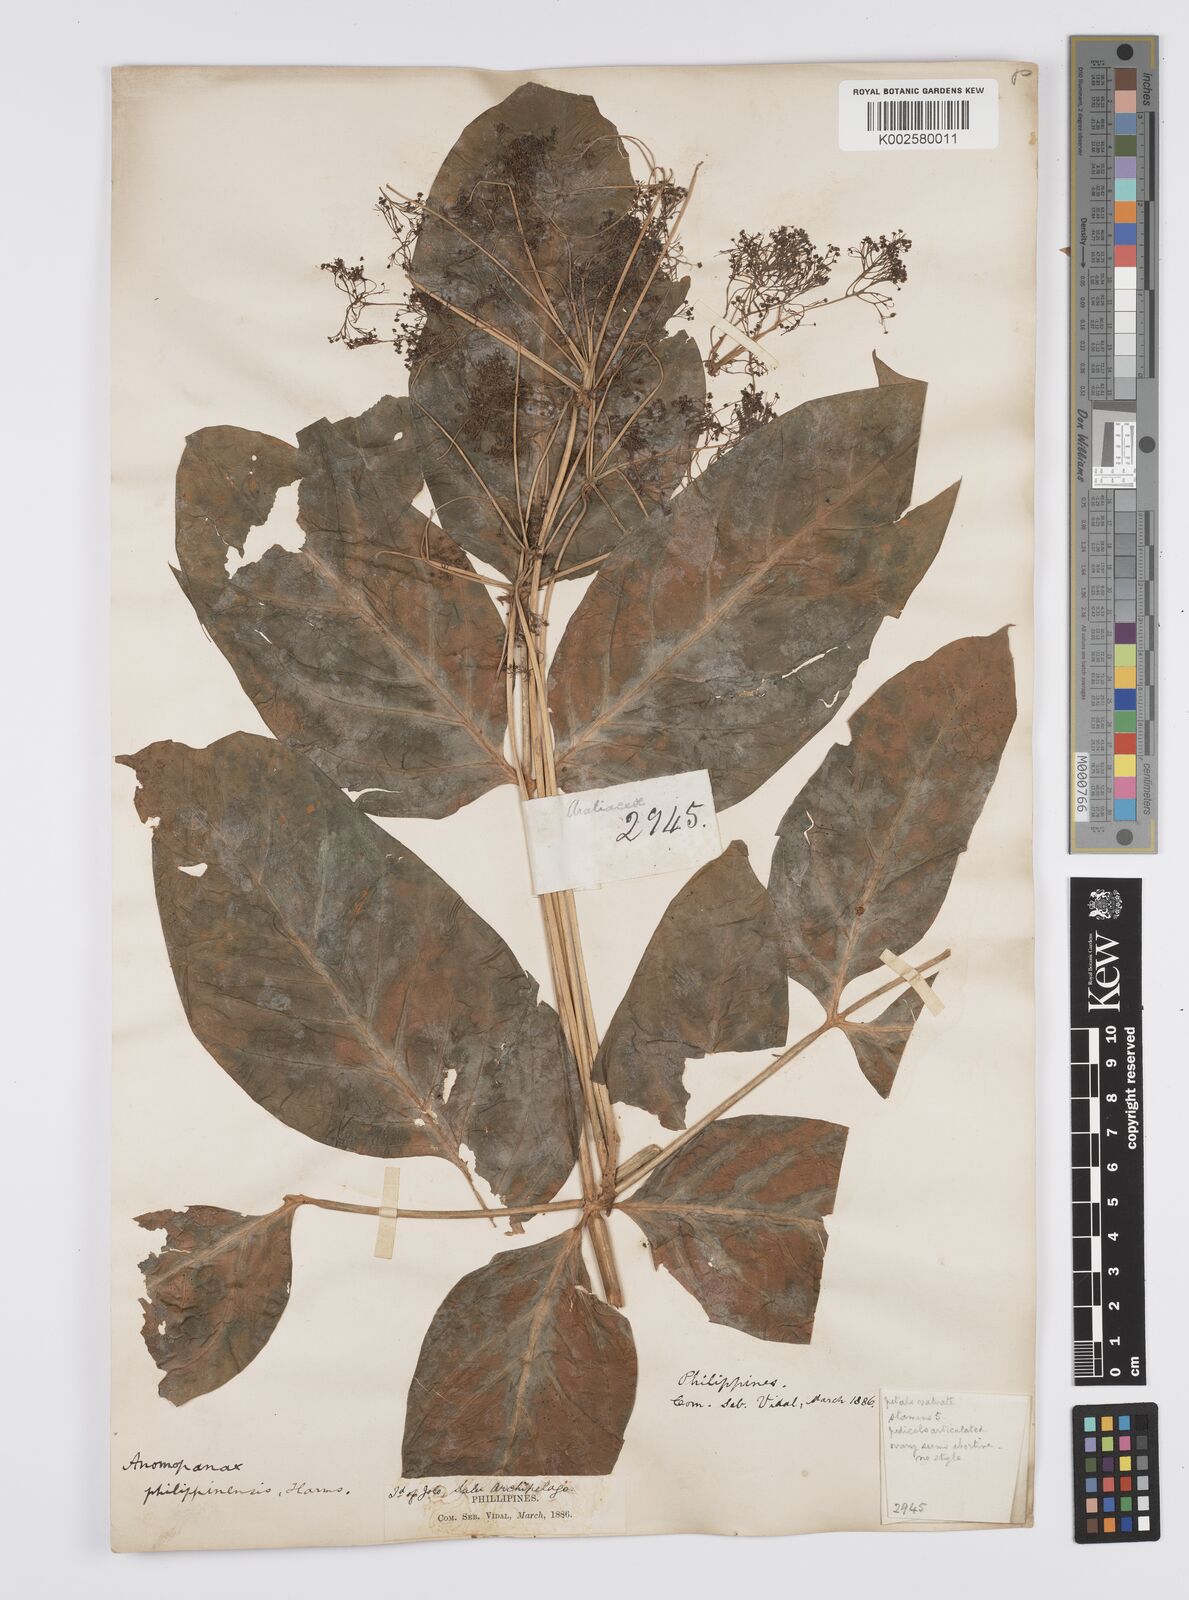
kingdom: Plantae
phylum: Tracheophyta
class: Magnoliopsida
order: Apiales
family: Apiaceae
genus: Mackinlaya
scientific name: Mackinlaya celebica
